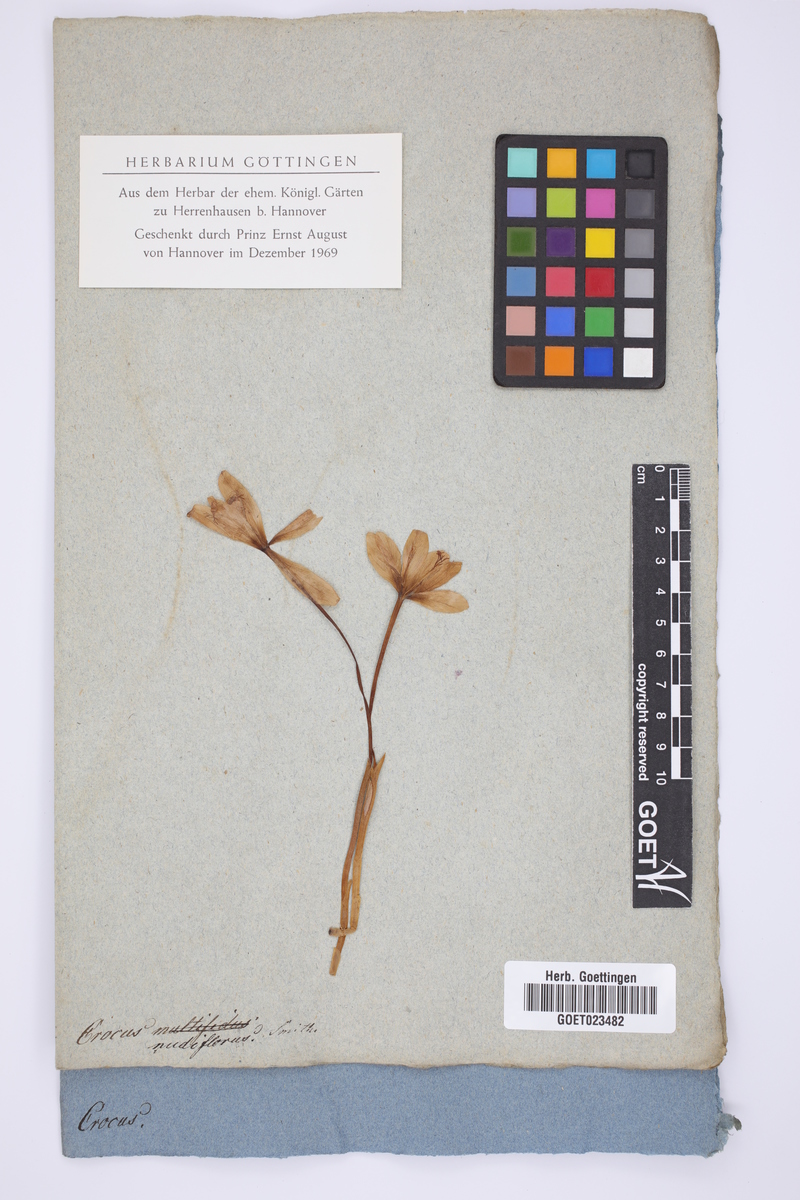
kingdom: Plantae
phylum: Tracheophyta
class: Liliopsida
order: Asparagales
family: Iridaceae
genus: Crocus
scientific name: Crocus nudiflorus
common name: Autumn crocus
